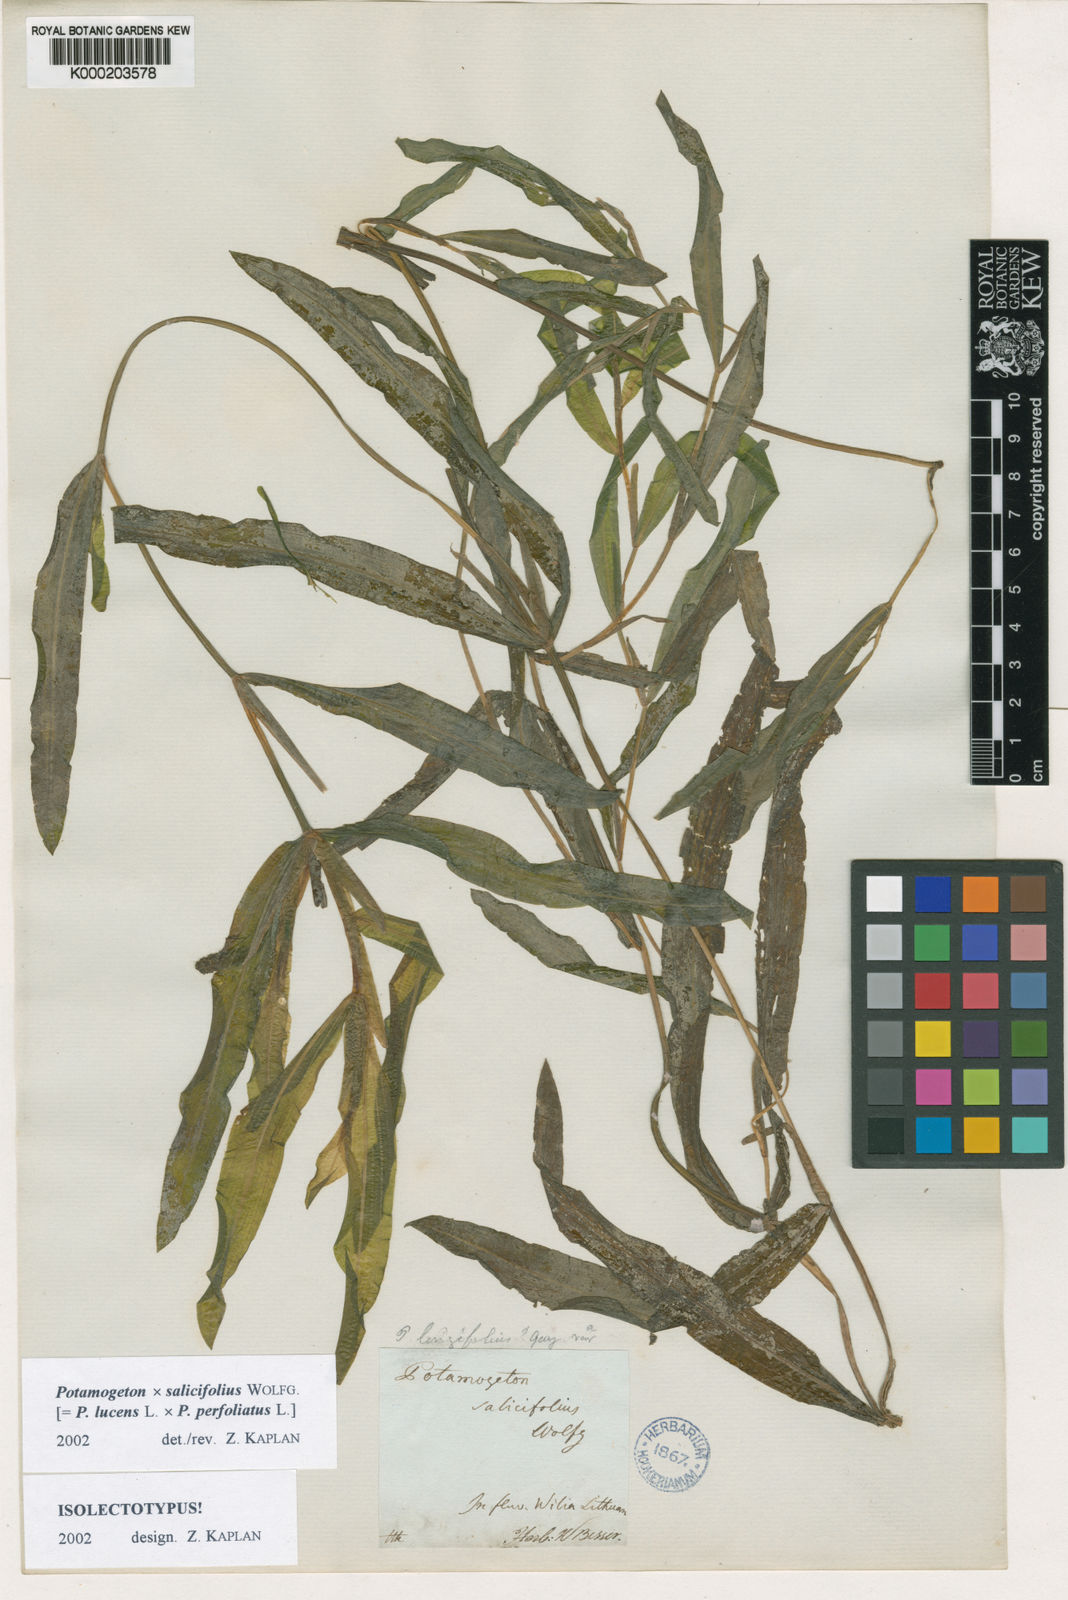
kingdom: Plantae
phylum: Tracheophyta
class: Liliopsida
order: Alismatales
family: Potamogetonaceae
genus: Potamogeton
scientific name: Potamogeton lucens
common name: Shining pondweed
